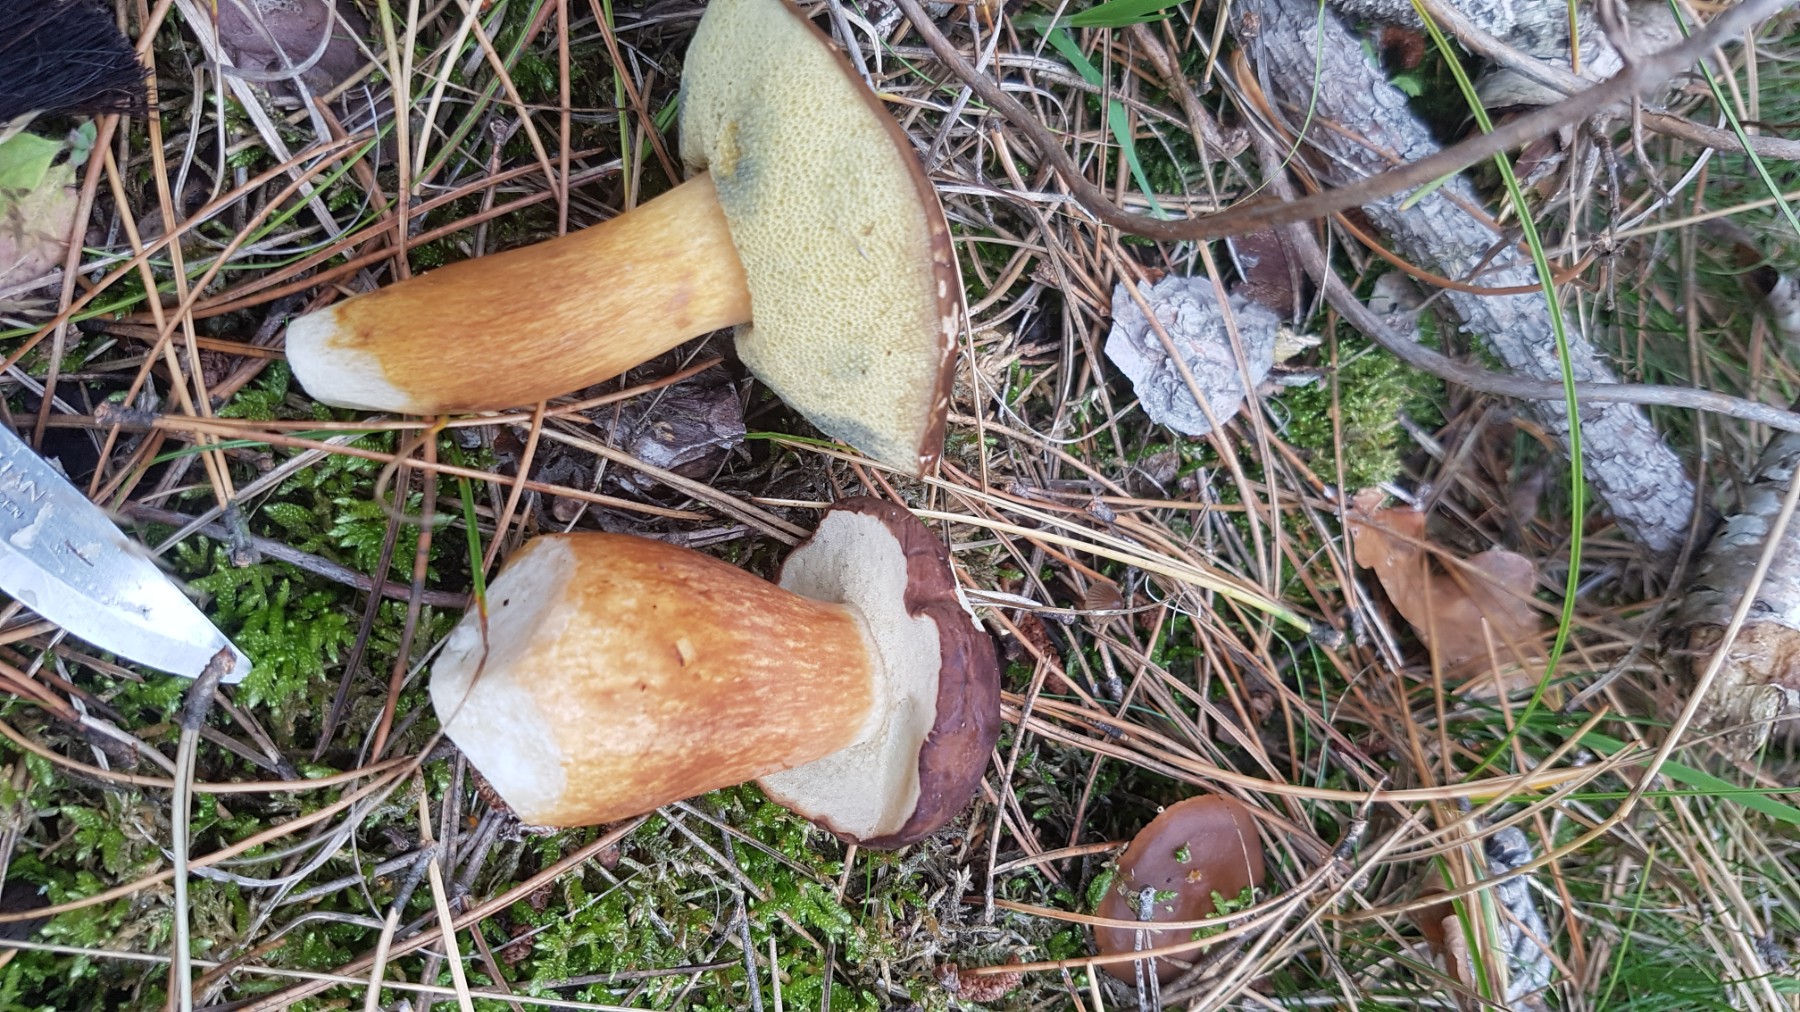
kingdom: Fungi
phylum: Basidiomycota
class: Agaricomycetes
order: Boletales
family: Boletaceae
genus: Imleria
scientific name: Imleria badia
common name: brunstokket rørhat
